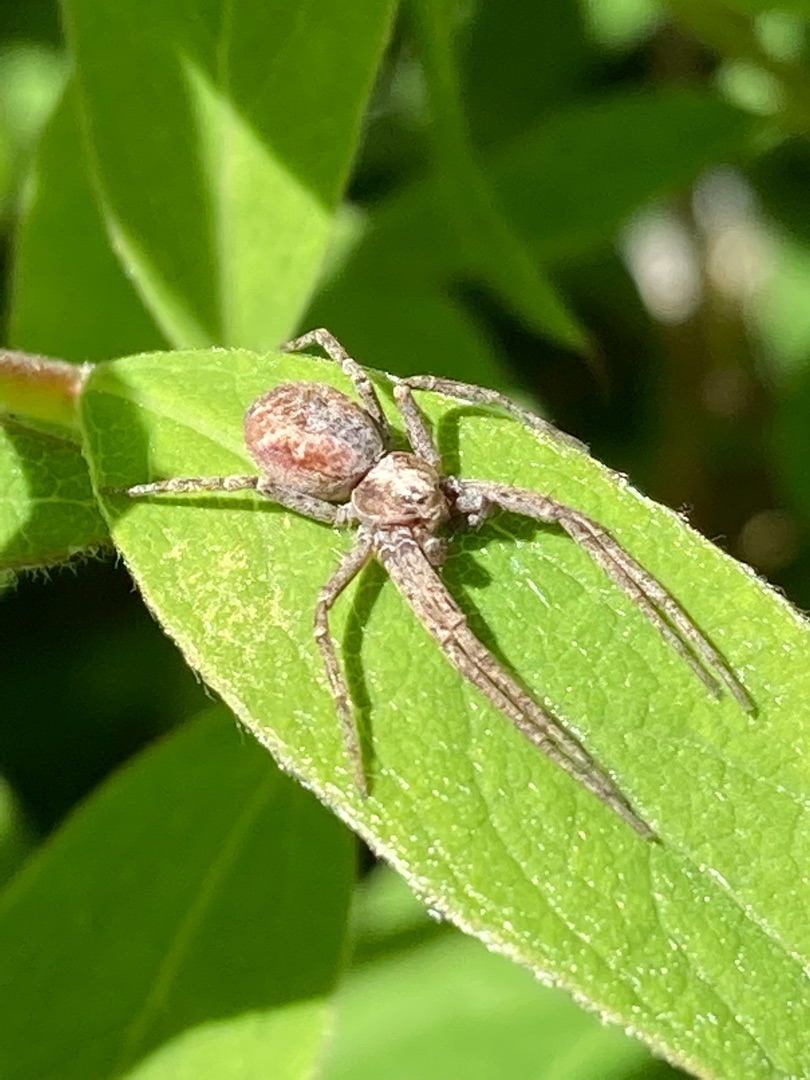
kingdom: Animalia
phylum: Arthropoda
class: Arachnida
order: Araneae
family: Philodromidae
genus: Philodromus
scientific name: Philodromus
